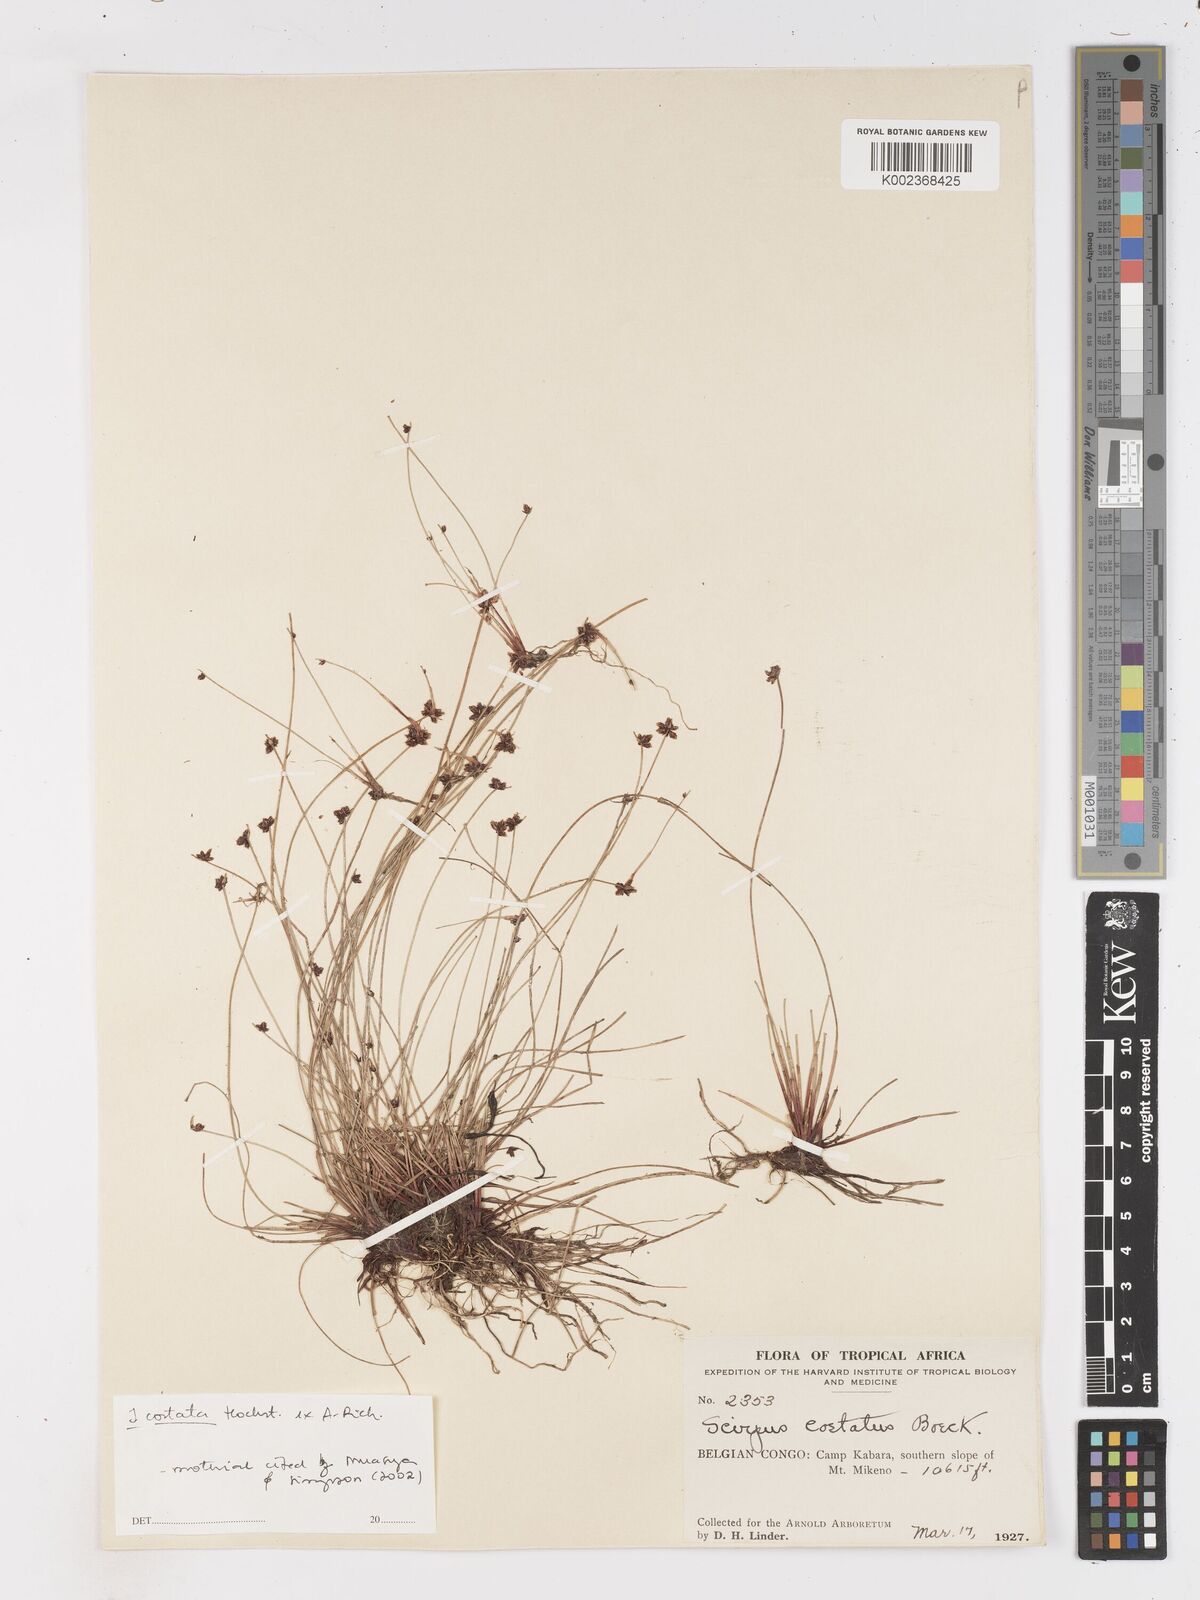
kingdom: Plantae
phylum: Tracheophyta
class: Liliopsida
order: Poales
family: Cyperaceae
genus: Isolepis
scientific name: Isolepis costata
